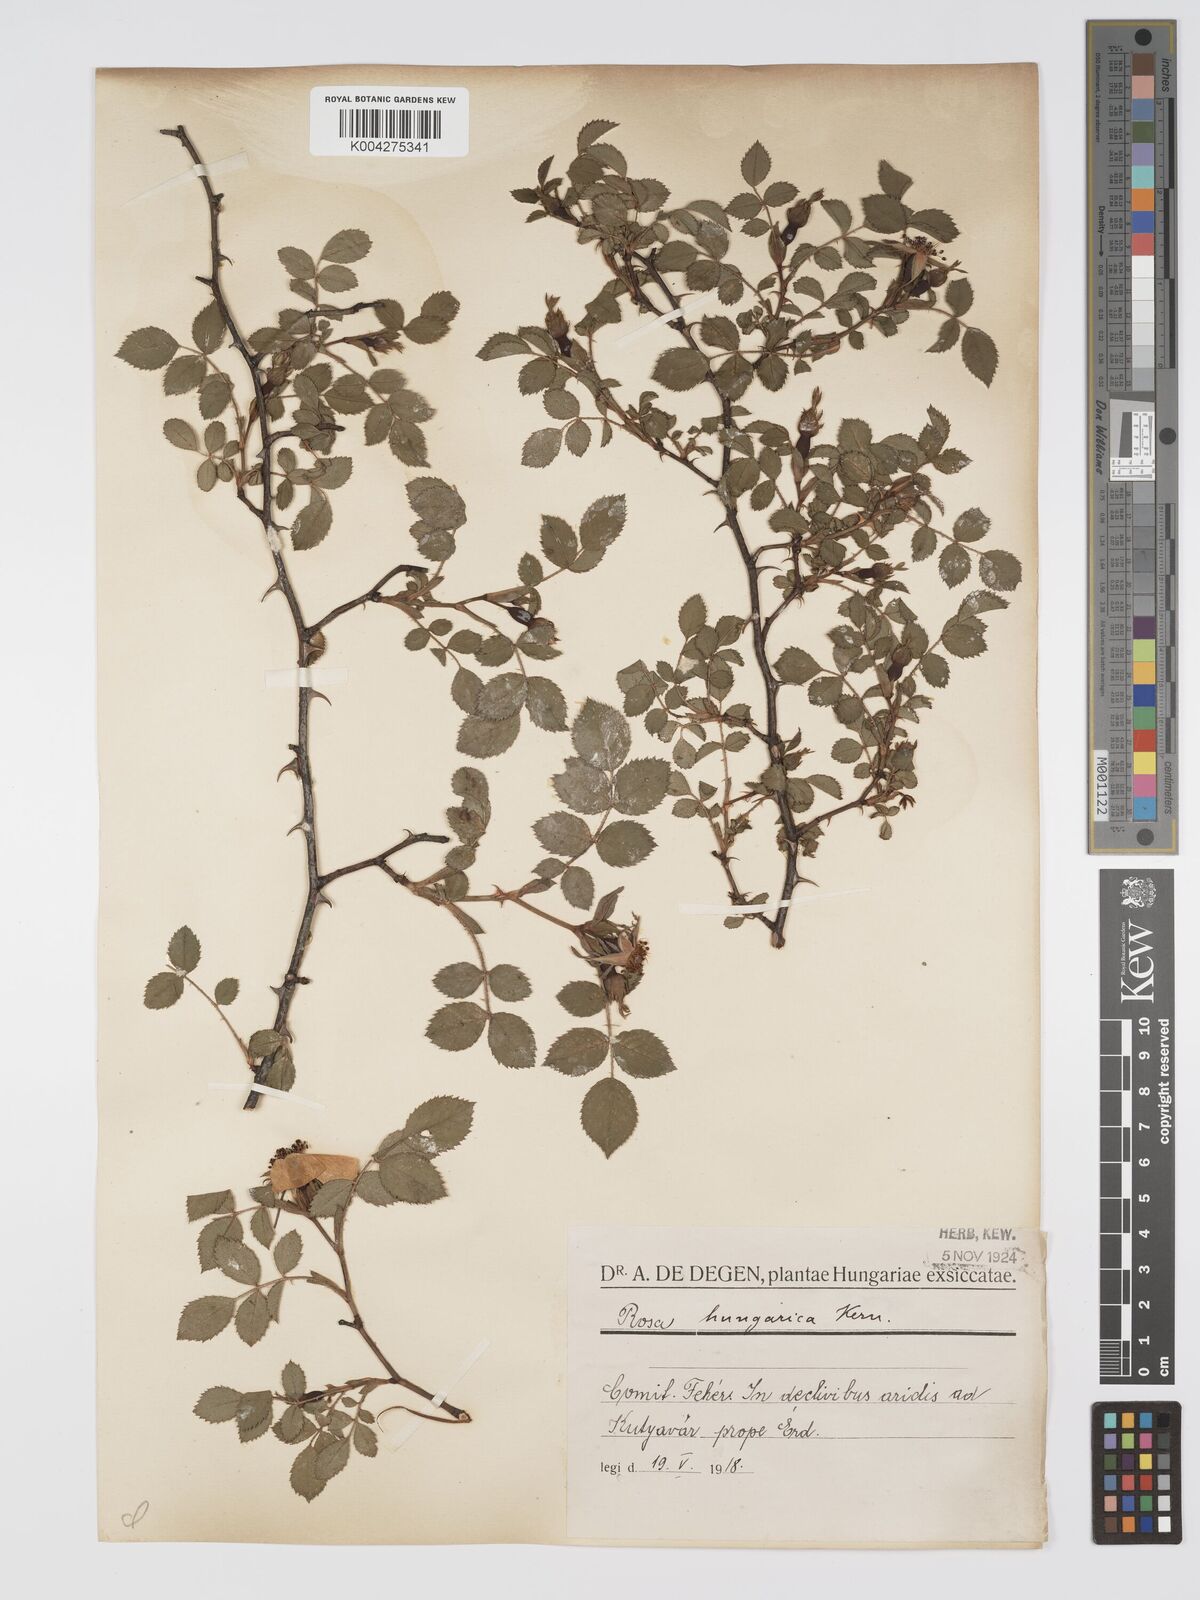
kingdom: Plantae
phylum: Tracheophyta
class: Magnoliopsida
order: Rosales
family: Rosaceae
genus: Rosa
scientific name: Rosa
